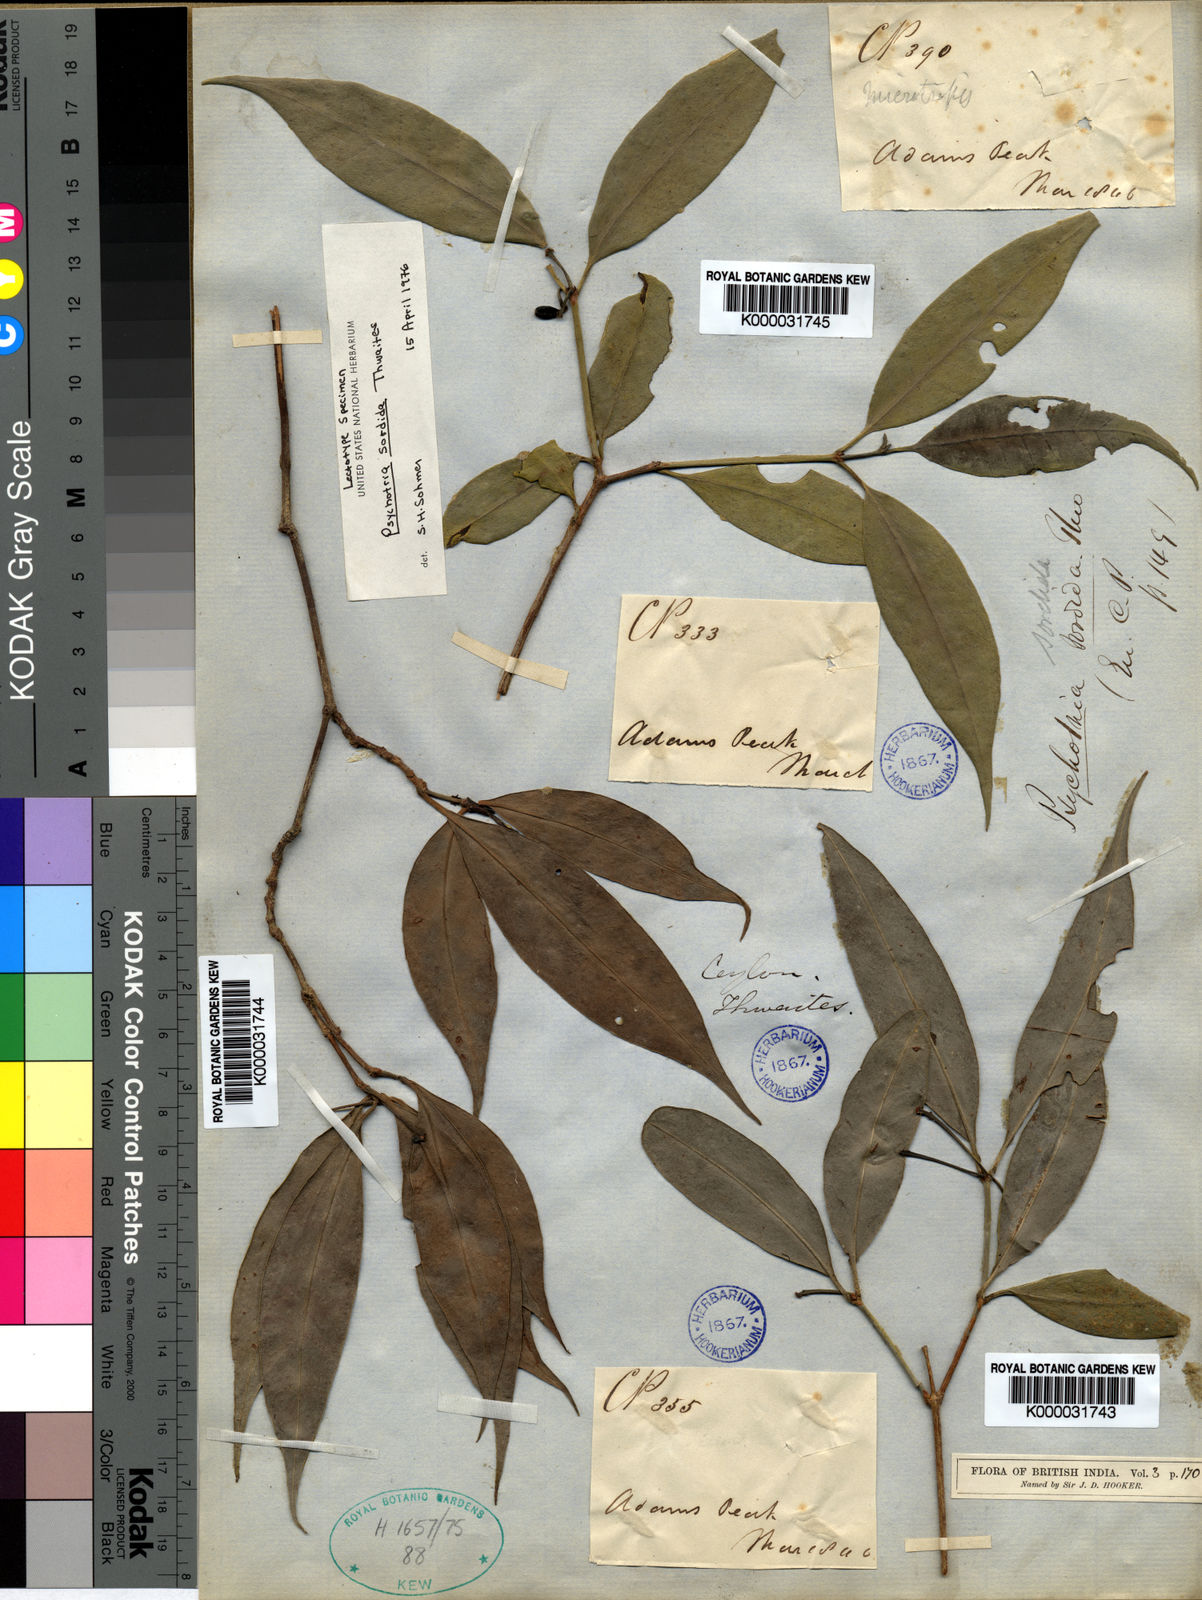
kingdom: Plantae
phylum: Tracheophyta
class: Magnoliopsida
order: Gentianales
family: Rubiaceae
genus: Psychotria
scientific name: Psychotria sordida
